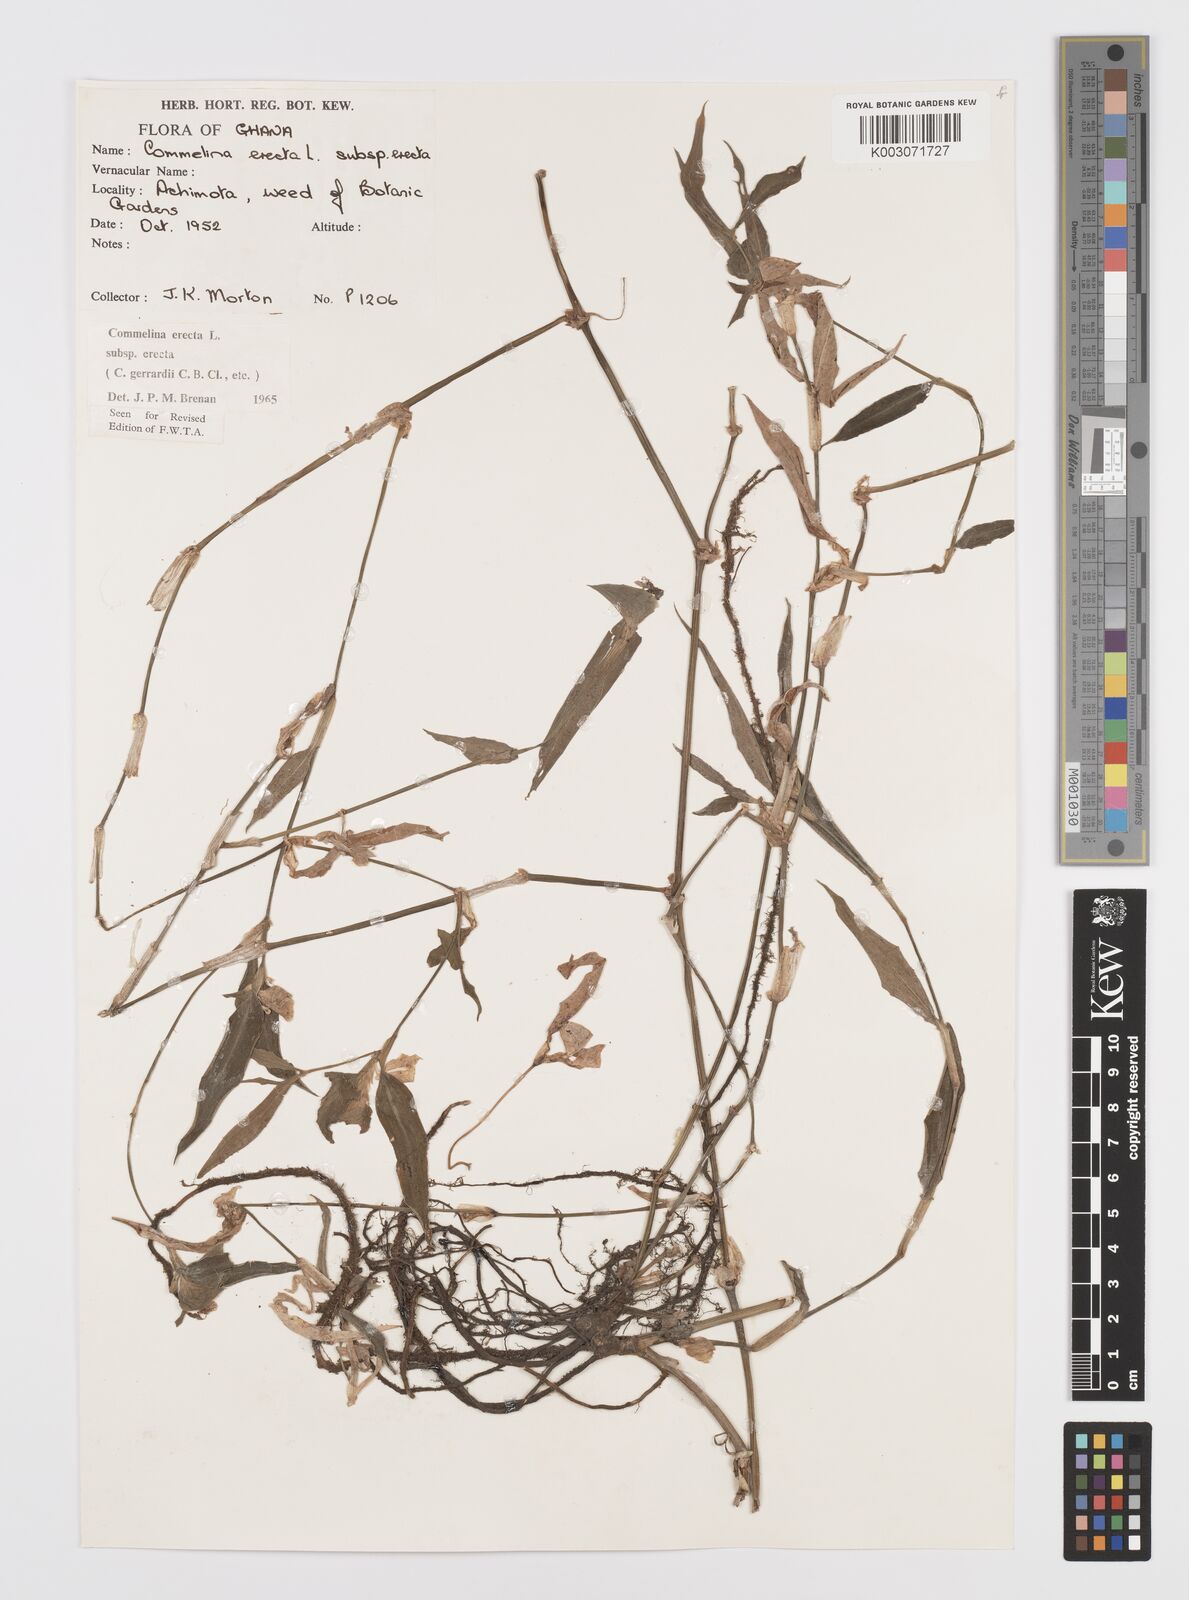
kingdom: Plantae
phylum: Tracheophyta
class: Liliopsida
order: Commelinales
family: Commelinaceae
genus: Commelina
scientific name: Commelina erecta
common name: Blousel blommetjie
